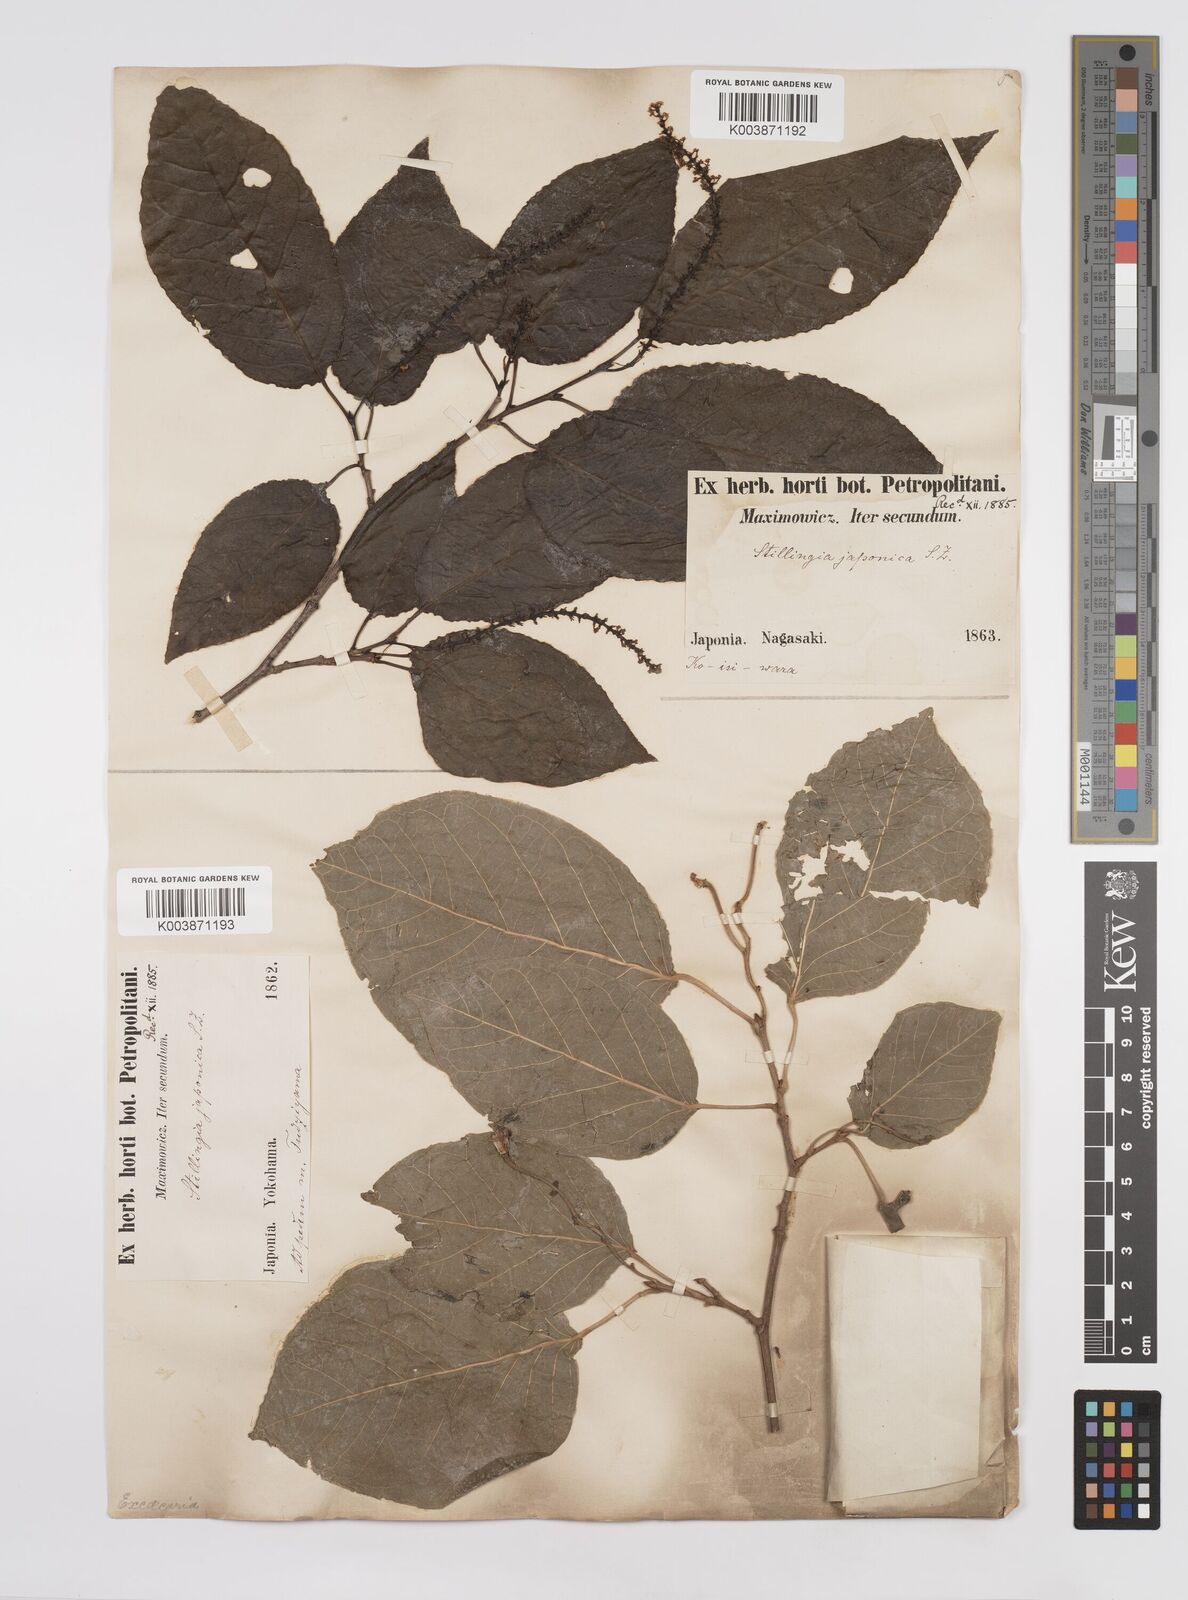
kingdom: Plantae
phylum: Tracheophyta
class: Magnoliopsida
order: Malpighiales
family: Euphorbiaceae
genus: Neoshirakia
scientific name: Neoshirakia japonica
